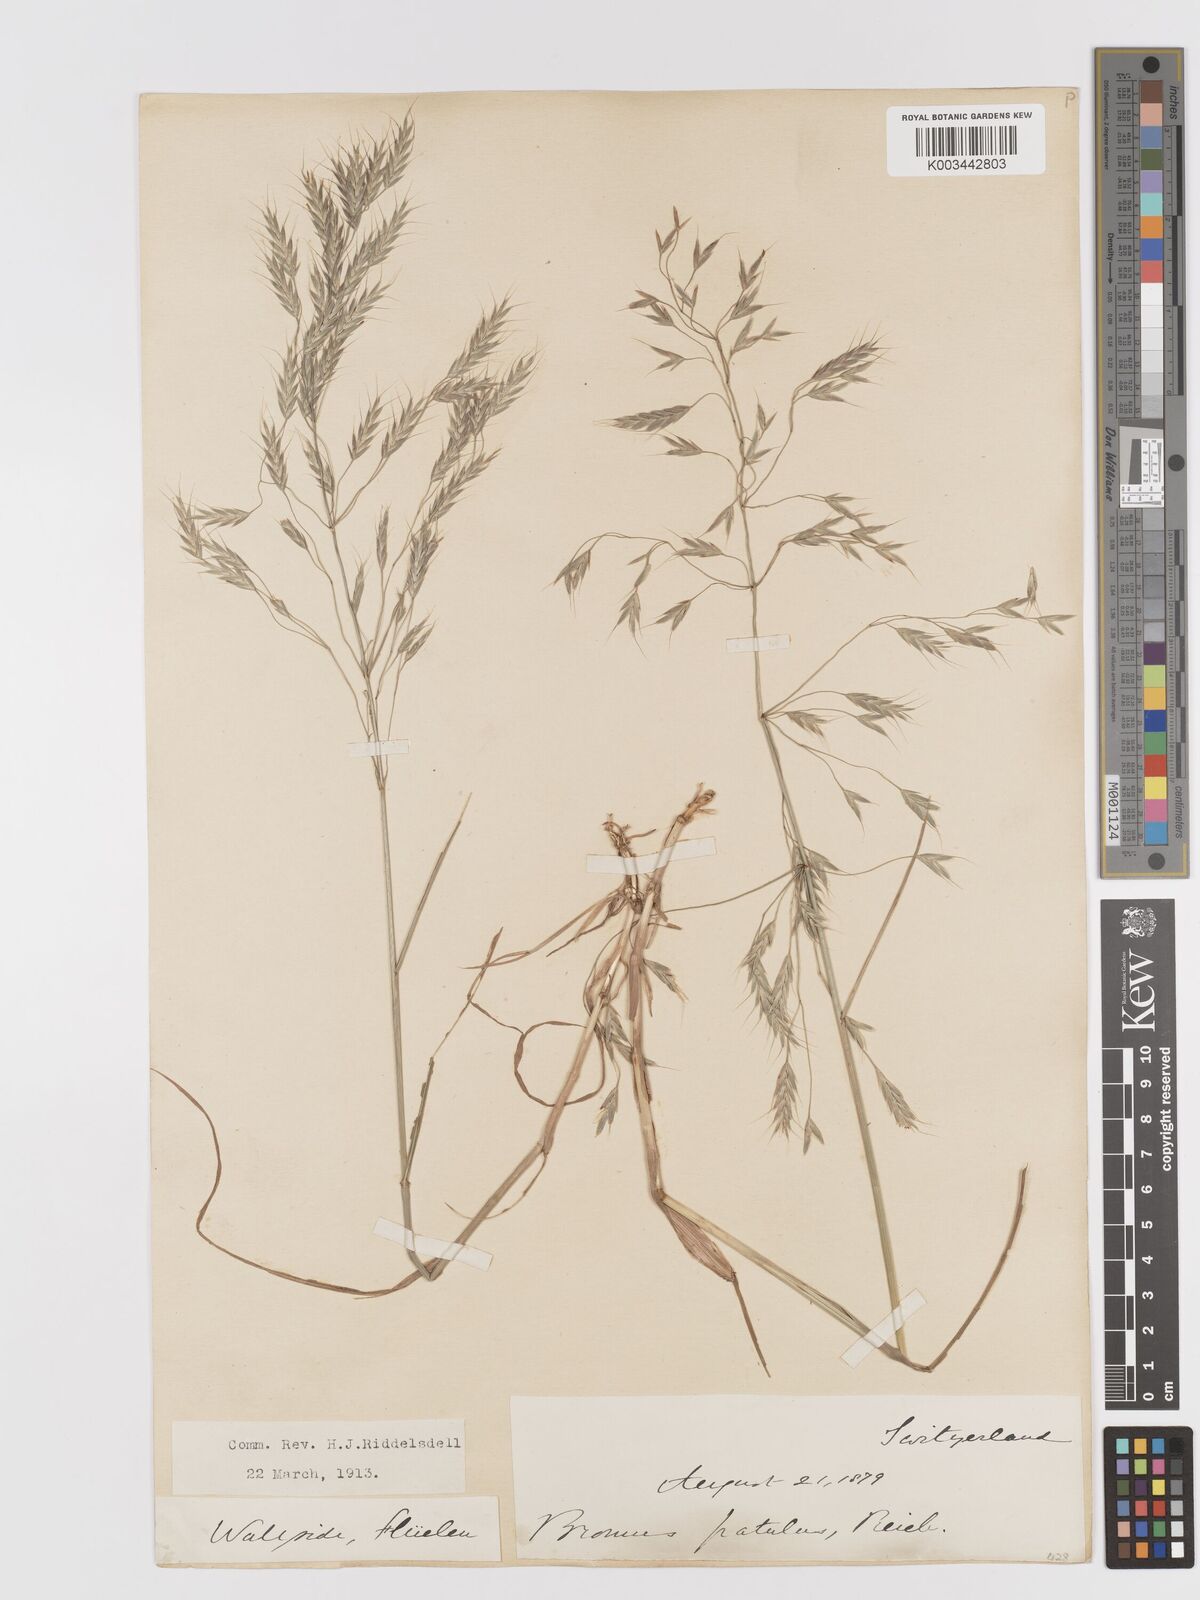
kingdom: Plantae
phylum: Tracheophyta
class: Liliopsida
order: Poales
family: Poaceae
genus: Bromus
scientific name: Bromus japonicus
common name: Japanese brome
